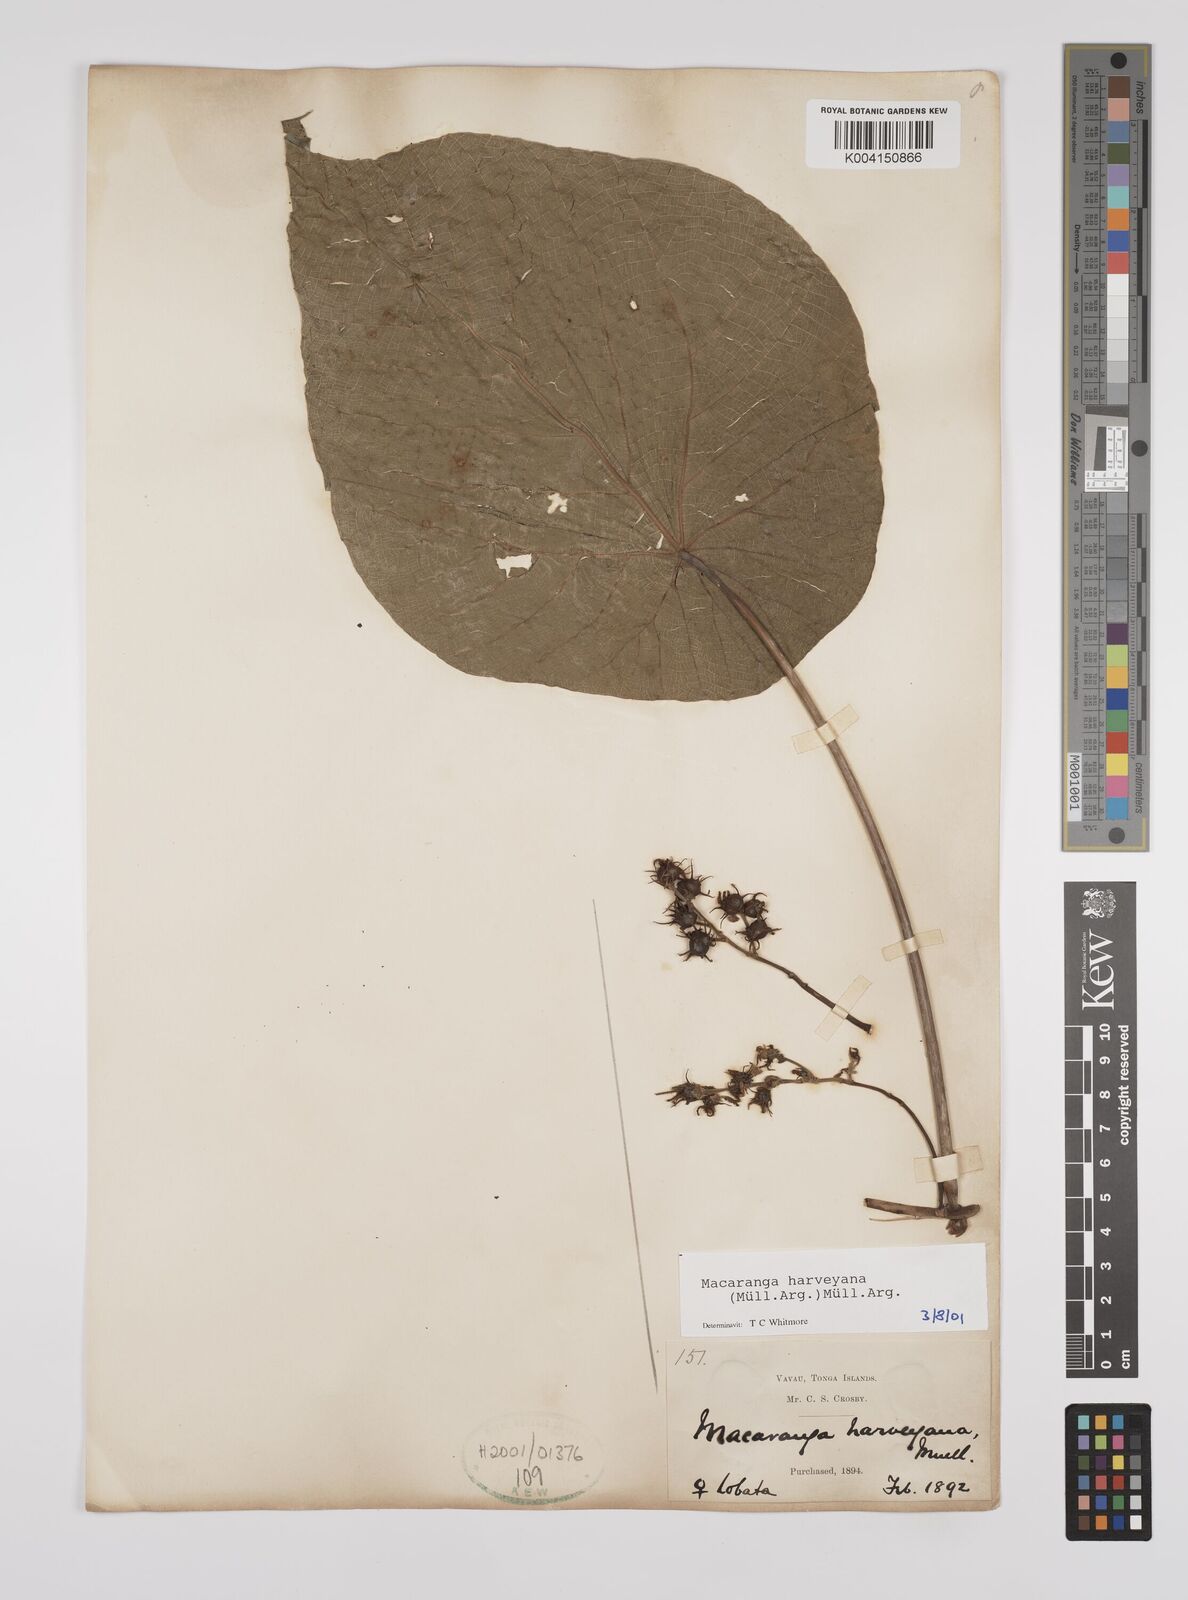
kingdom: Plantae
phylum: Tracheophyta
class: Magnoliopsida
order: Malpighiales
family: Euphorbiaceae
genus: Macaranga
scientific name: Macaranga harveyana
